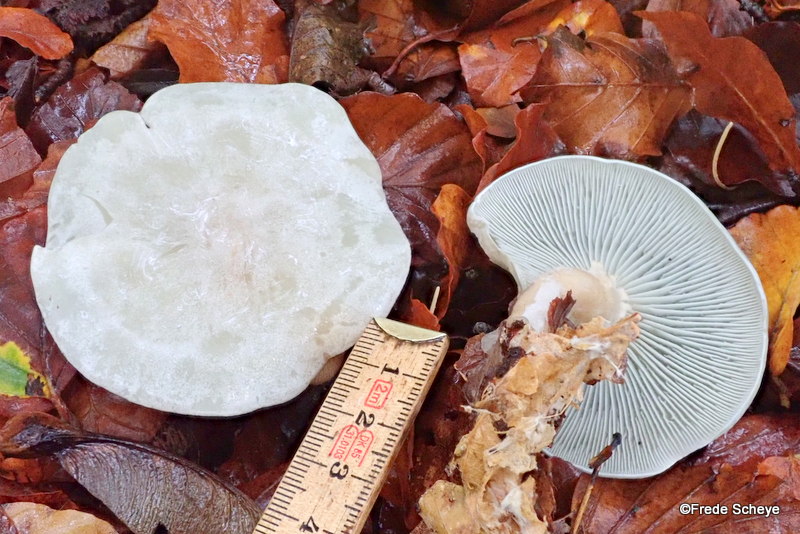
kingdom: Fungi
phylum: Basidiomycota
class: Agaricomycetes
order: Agaricales
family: Tricholomataceae
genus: Clitocybe
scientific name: Clitocybe odora
